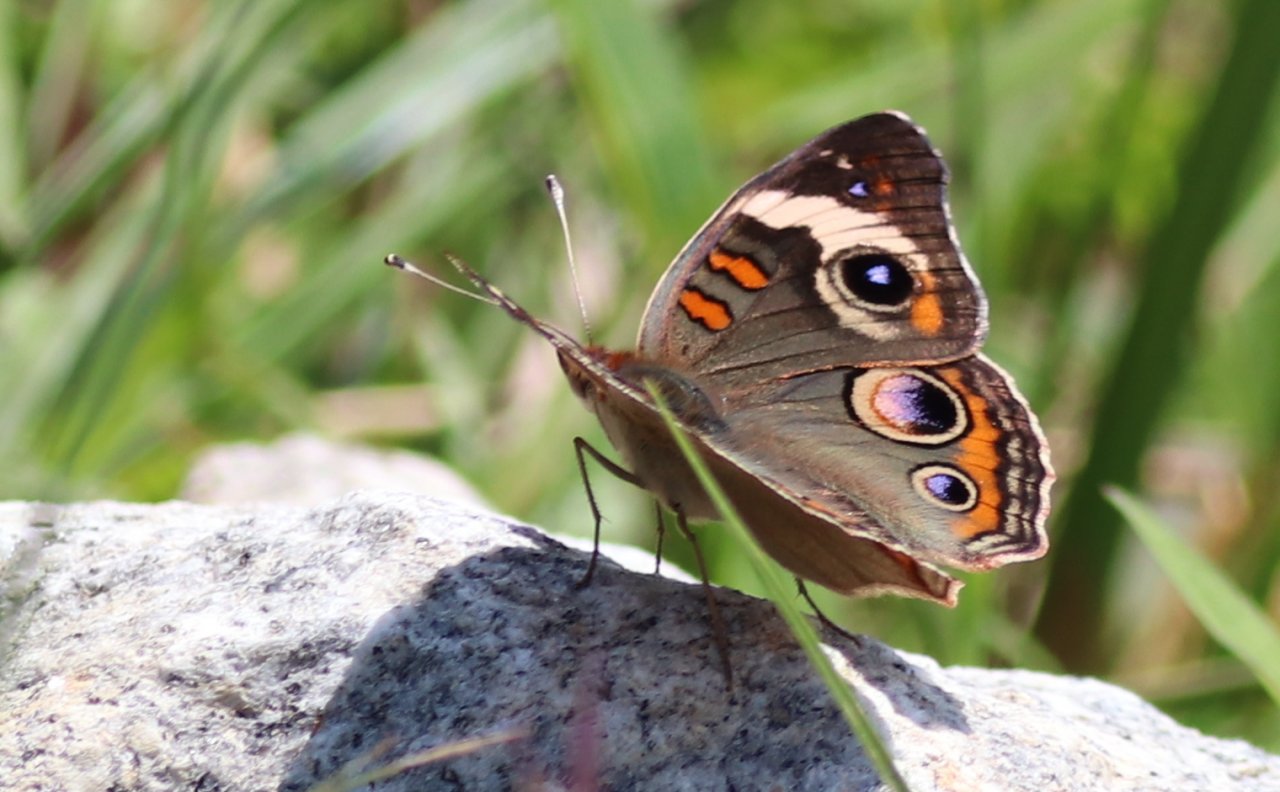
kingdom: Animalia
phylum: Arthropoda
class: Insecta
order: Lepidoptera
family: Nymphalidae
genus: Junonia
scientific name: Junonia coenia
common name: Common Buckeye
